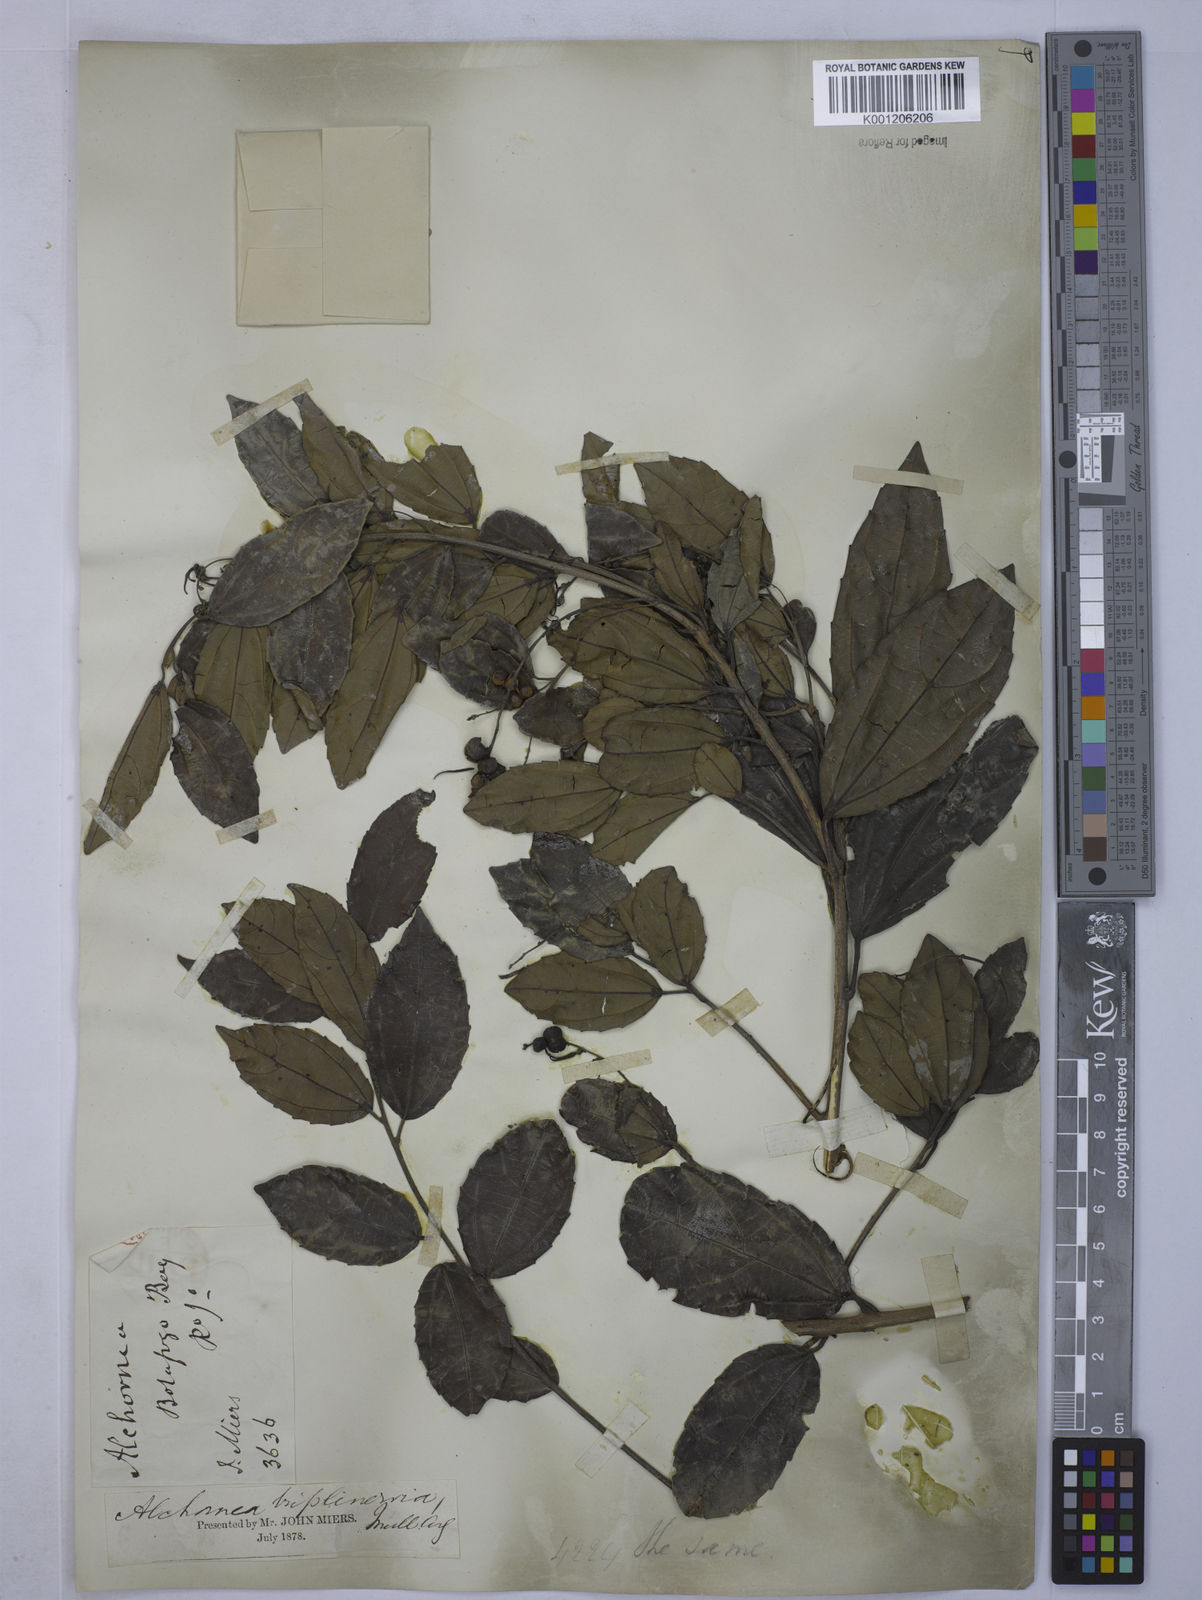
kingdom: Plantae
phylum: Tracheophyta
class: Magnoliopsida
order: Malpighiales
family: Euphorbiaceae
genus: Alchornea
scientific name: Alchornea
